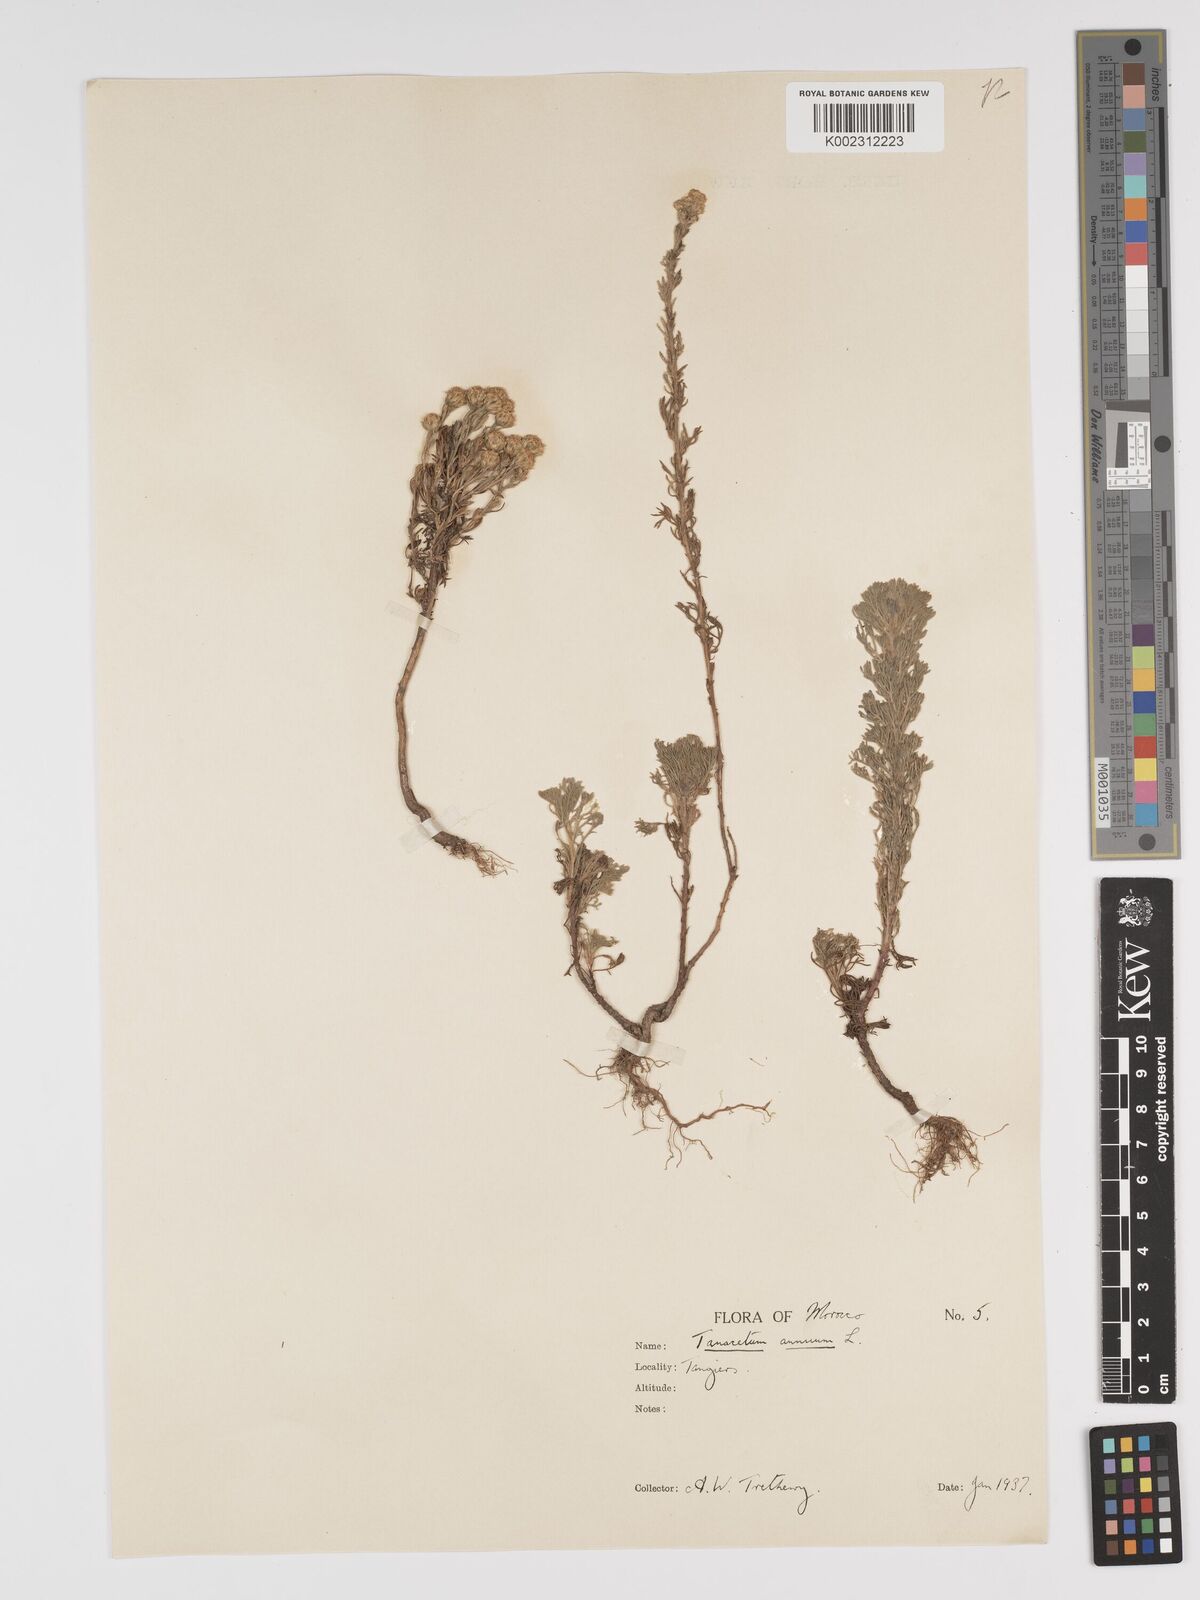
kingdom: Plantae
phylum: Tracheophyta
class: Magnoliopsida
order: Asterales
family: Asteraceae
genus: Vogtia
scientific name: Vogtia annua
